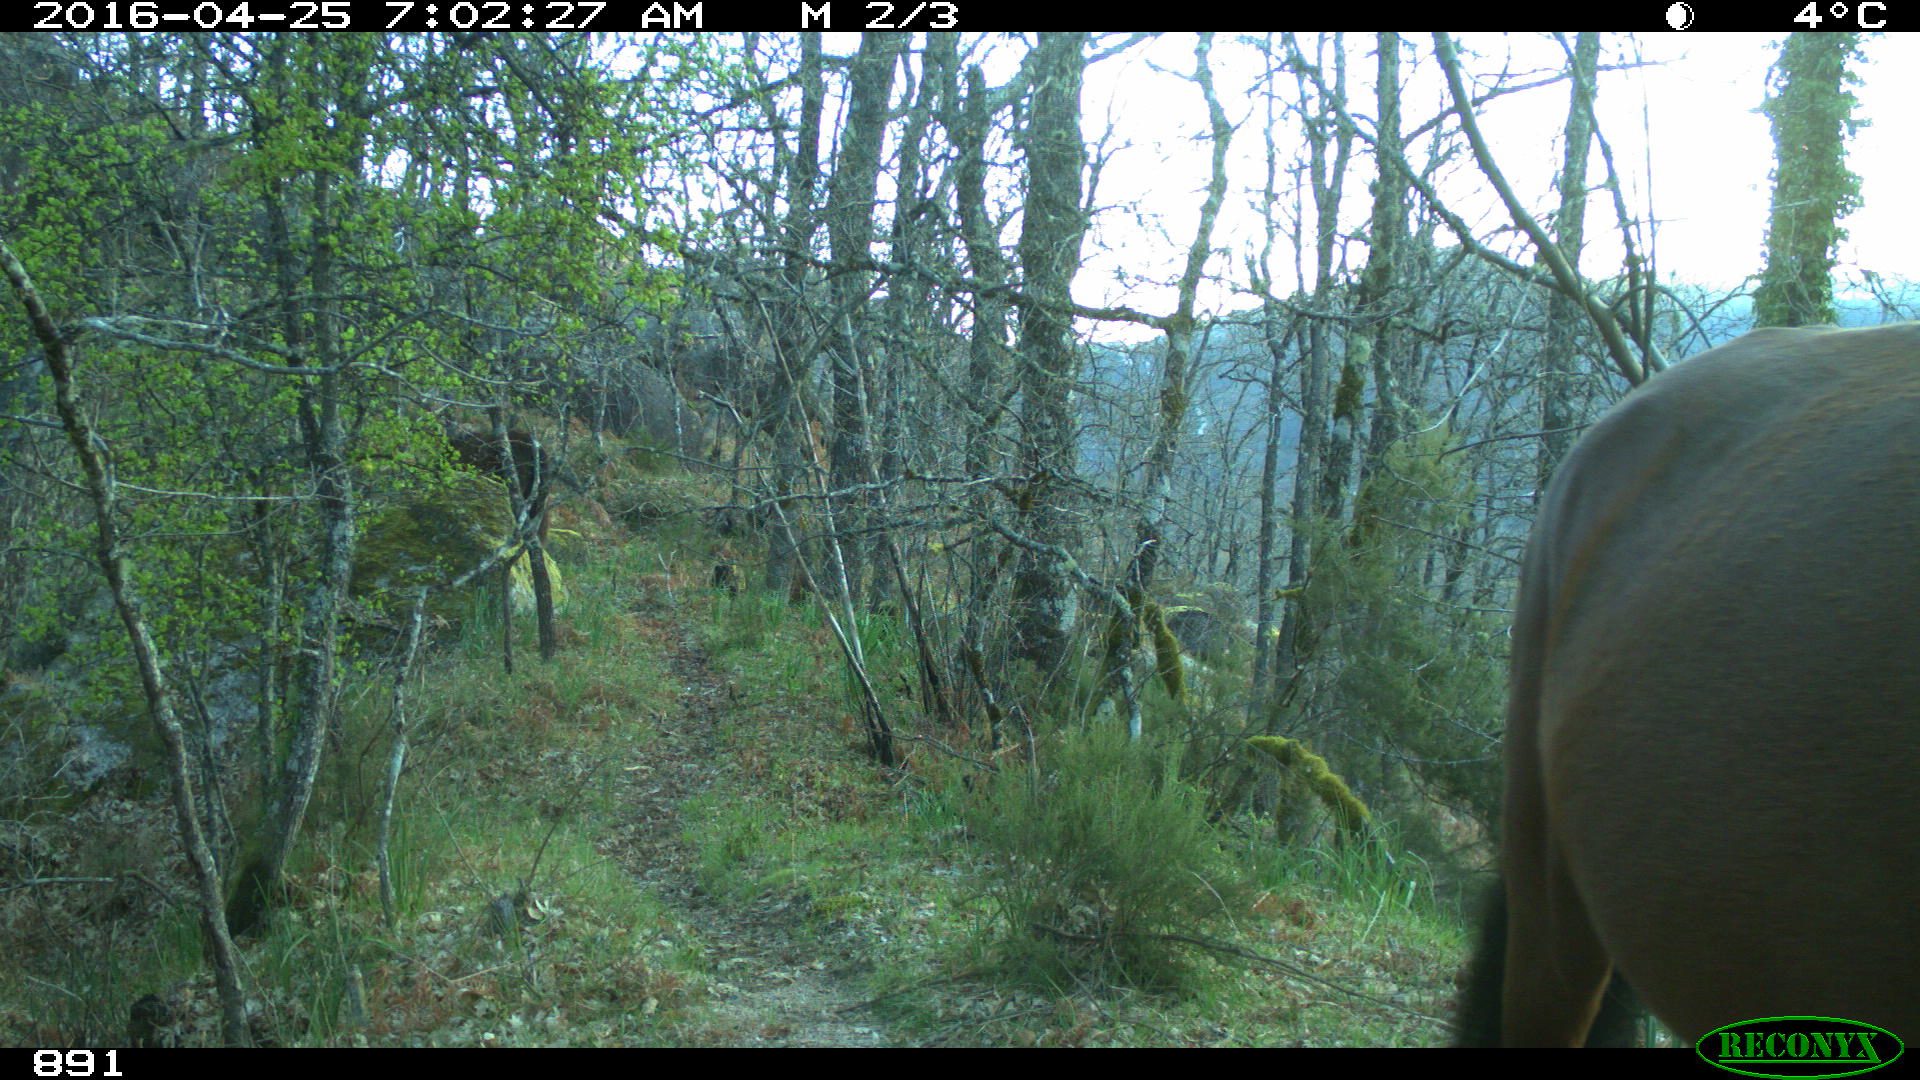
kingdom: Animalia
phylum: Chordata
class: Mammalia
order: Perissodactyla
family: Equidae
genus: Equus
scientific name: Equus caballus
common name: Horse
